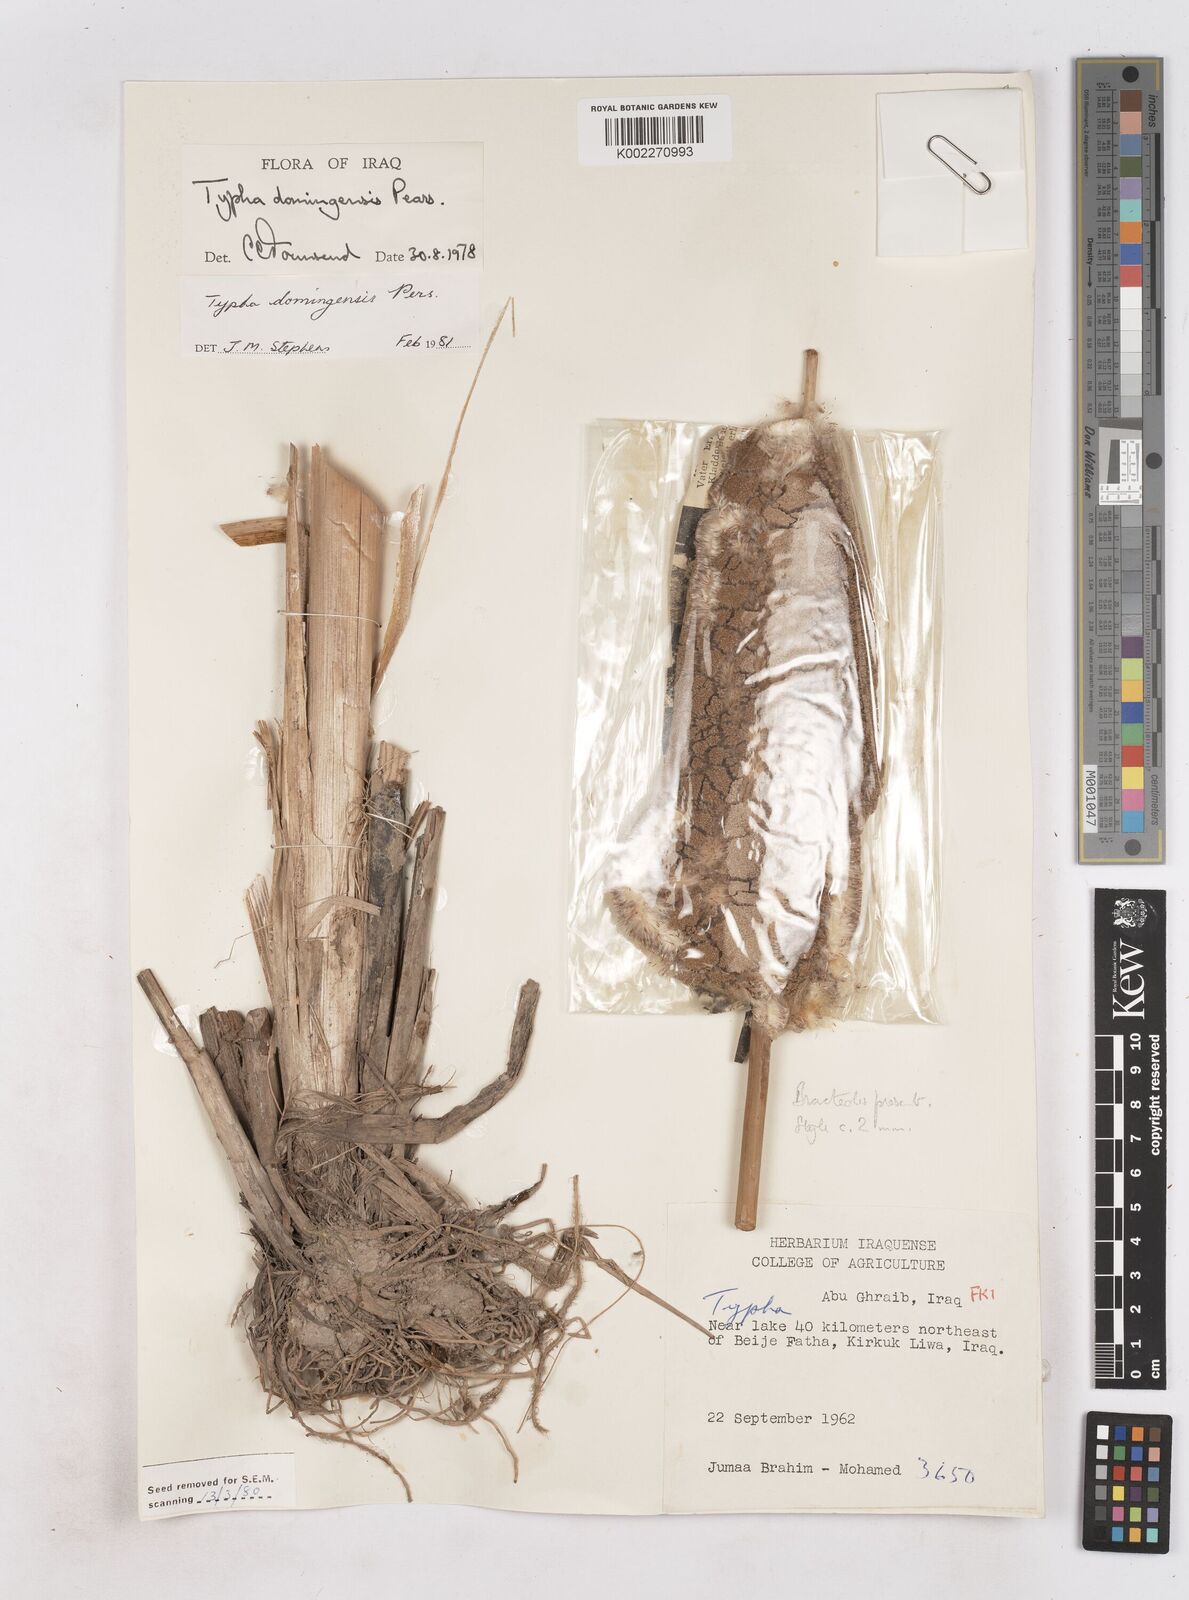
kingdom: Plantae
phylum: Tracheophyta
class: Liliopsida
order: Poales
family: Typhaceae
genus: Typha
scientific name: Typha domingensis
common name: Southern cattail
